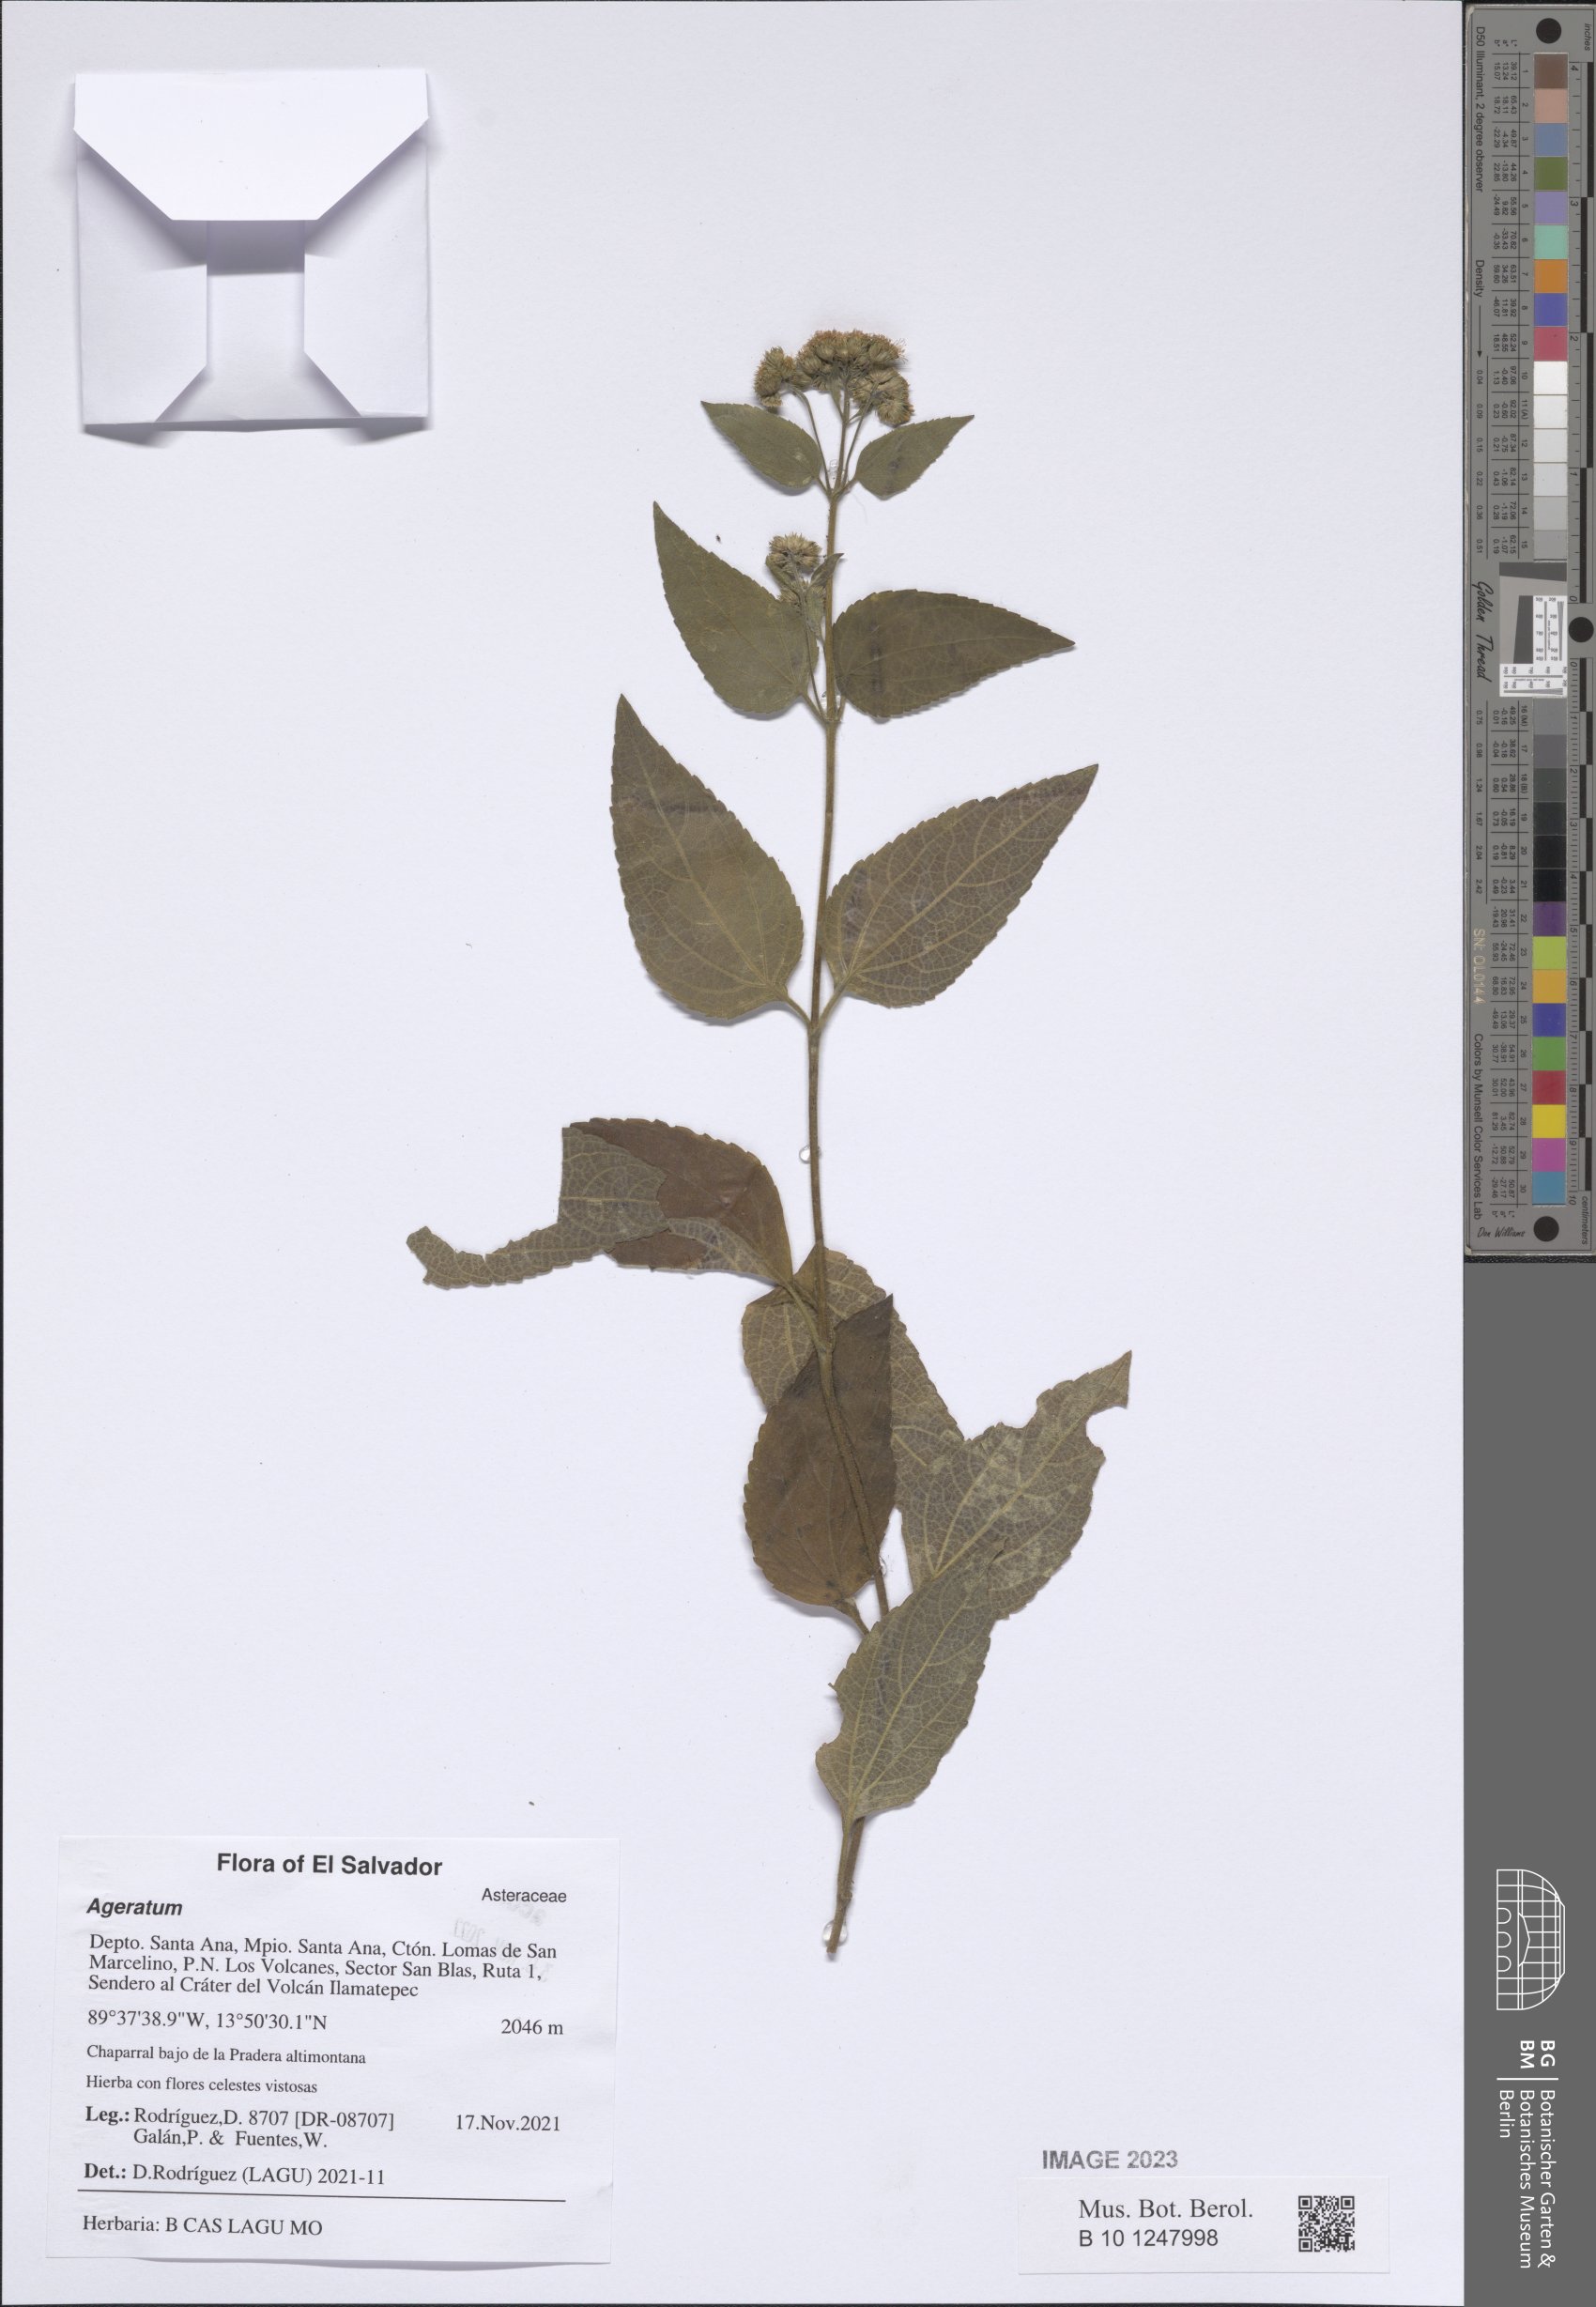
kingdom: Plantae
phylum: Tracheophyta
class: Magnoliopsida
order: Asterales
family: Asteraceae
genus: Ageratum
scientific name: Ageratum
